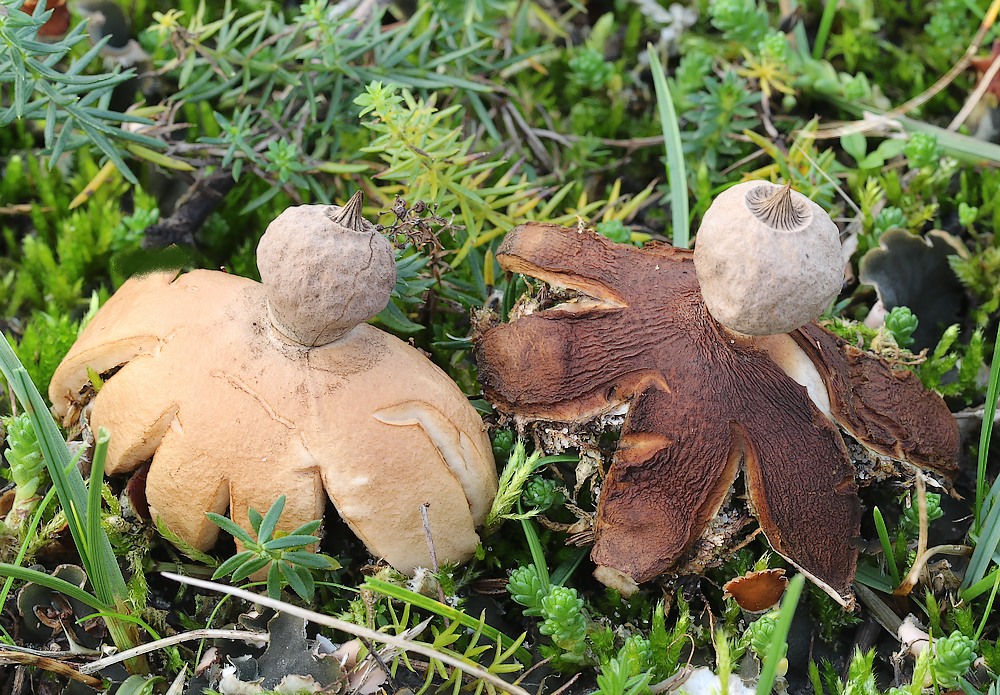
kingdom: Fungi
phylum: Basidiomycota
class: Agaricomycetes
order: Geastrales
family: Geastraceae
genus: Geastrum
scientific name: Geastrum striatum
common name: dværg-stjernebold
